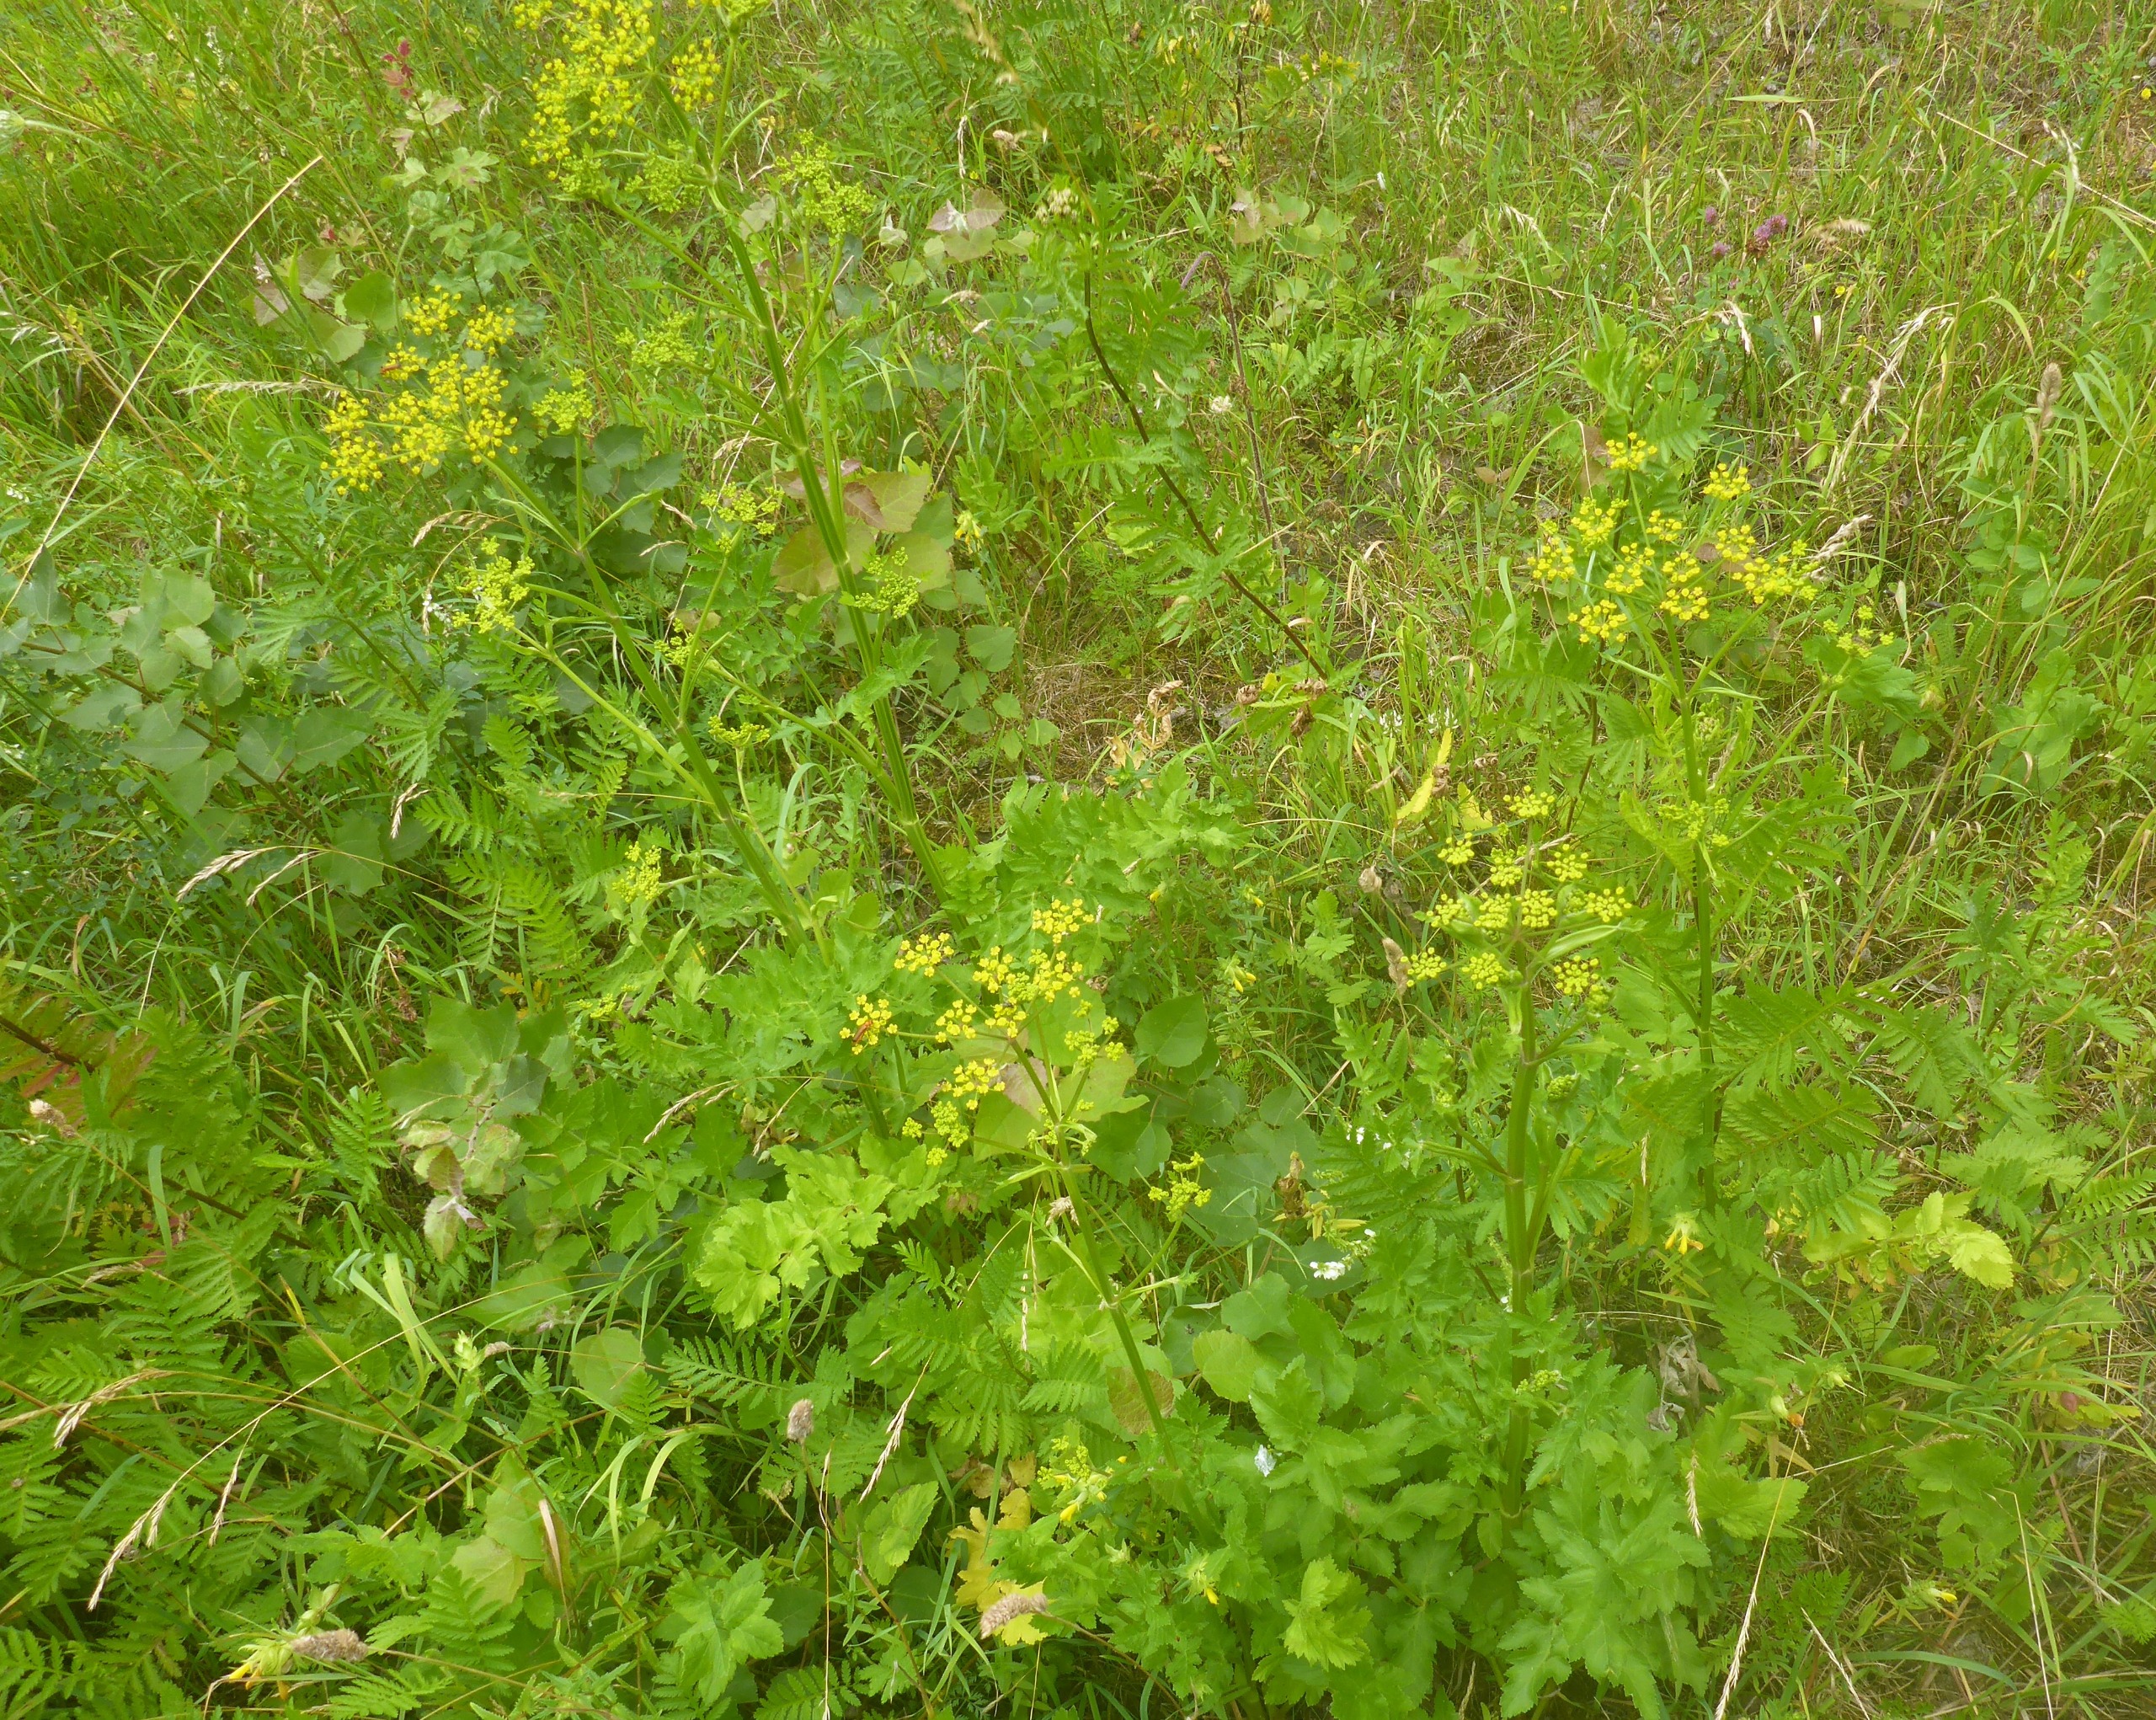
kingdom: Plantae
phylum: Tracheophyta
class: Magnoliopsida
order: Apiales
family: Apiaceae
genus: Pastinaca
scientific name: Pastinaca sativa
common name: Pastinak
